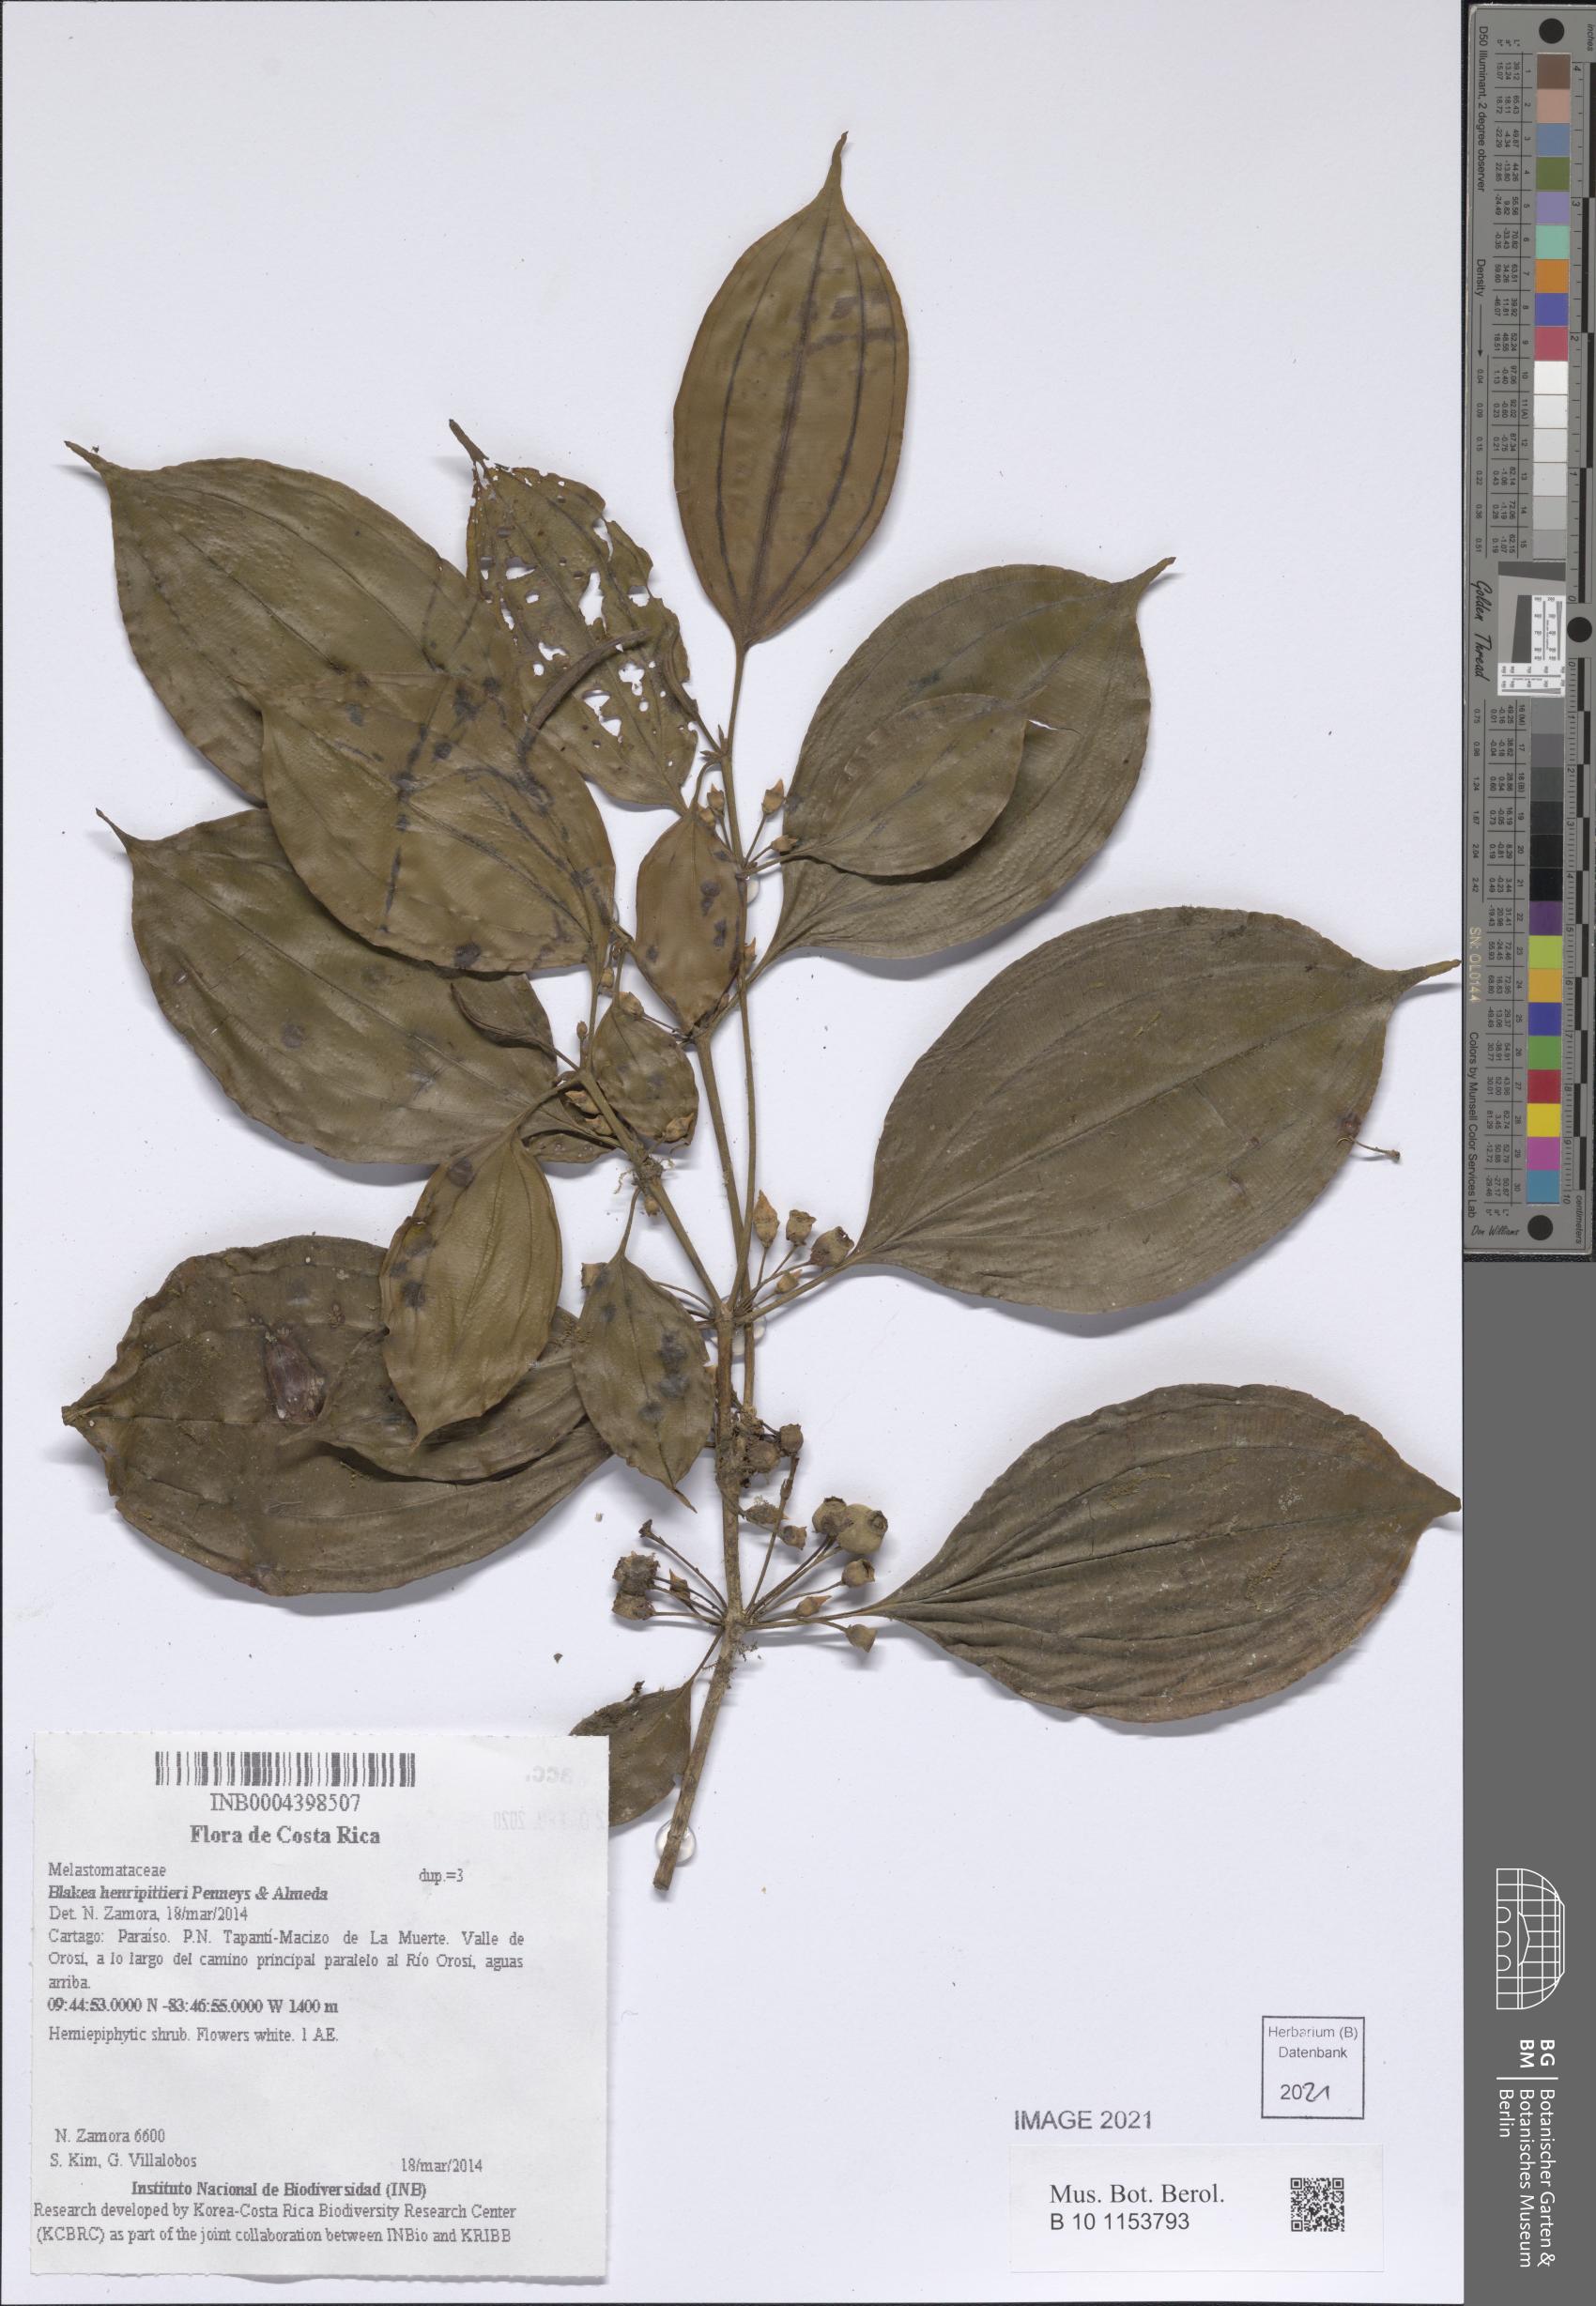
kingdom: Plantae
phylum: Tracheophyta
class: Magnoliopsida
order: Myrtales
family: Melastomataceae
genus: Blakea
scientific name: Blakea henripittieri
